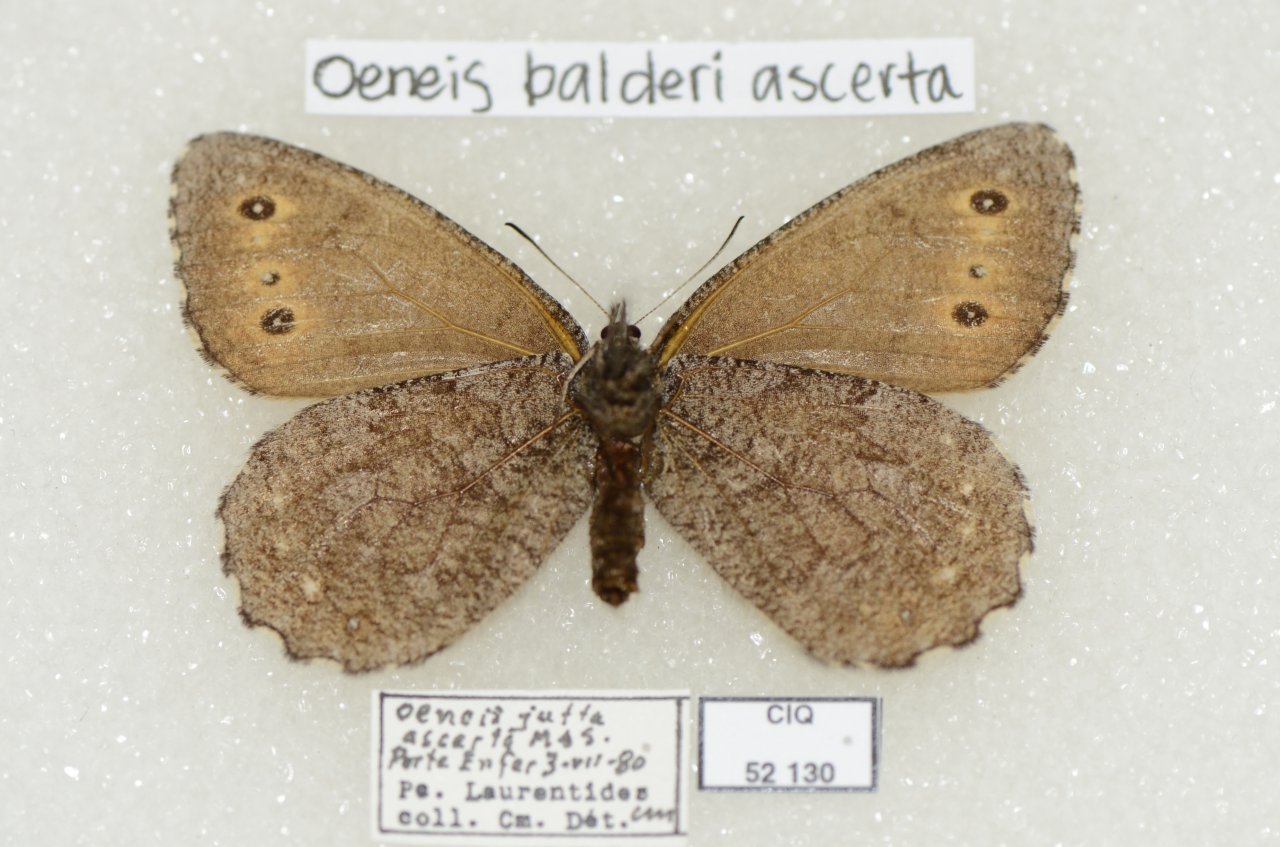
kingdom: Animalia
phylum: Arthropoda
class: Insecta
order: Lepidoptera
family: Nymphalidae
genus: Oeneis
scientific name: Oeneis jutta
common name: Jutta Arctic
